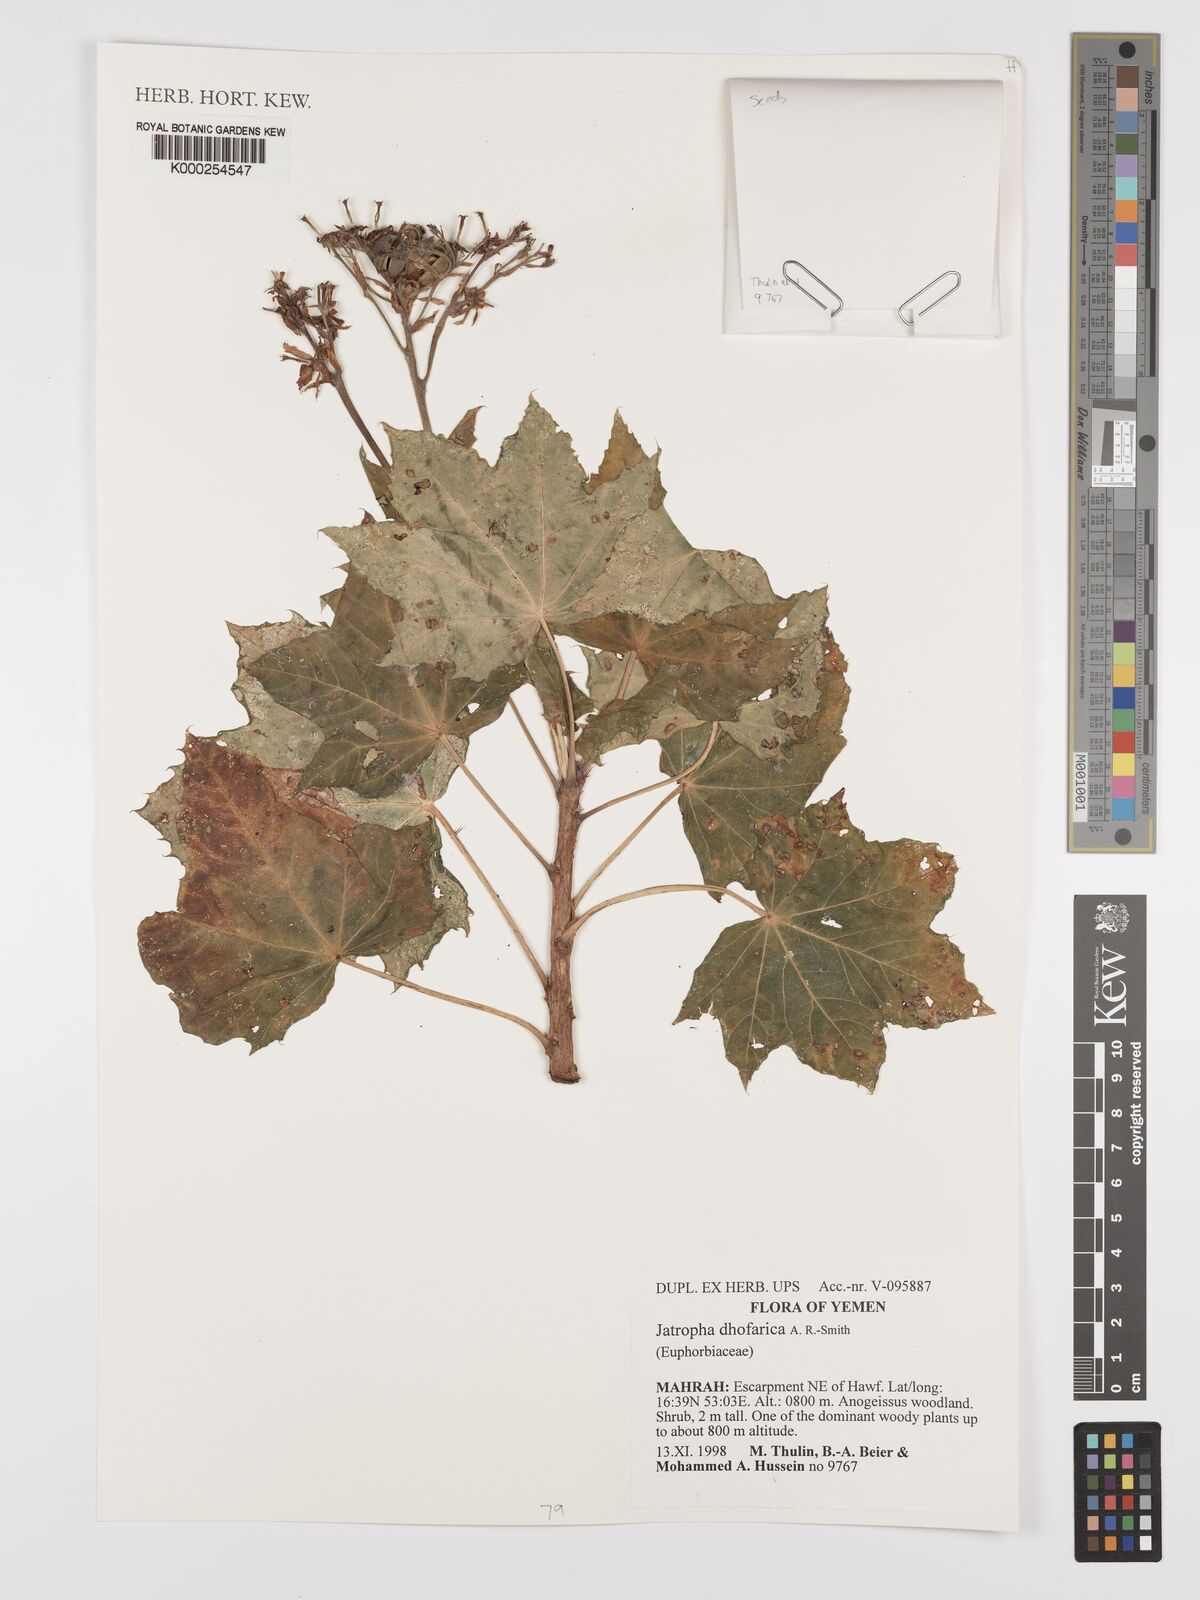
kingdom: Plantae
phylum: Tracheophyta
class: Magnoliopsida
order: Malpighiales
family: Euphorbiaceae
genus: Jatropha
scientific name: Jatropha dhofarica
